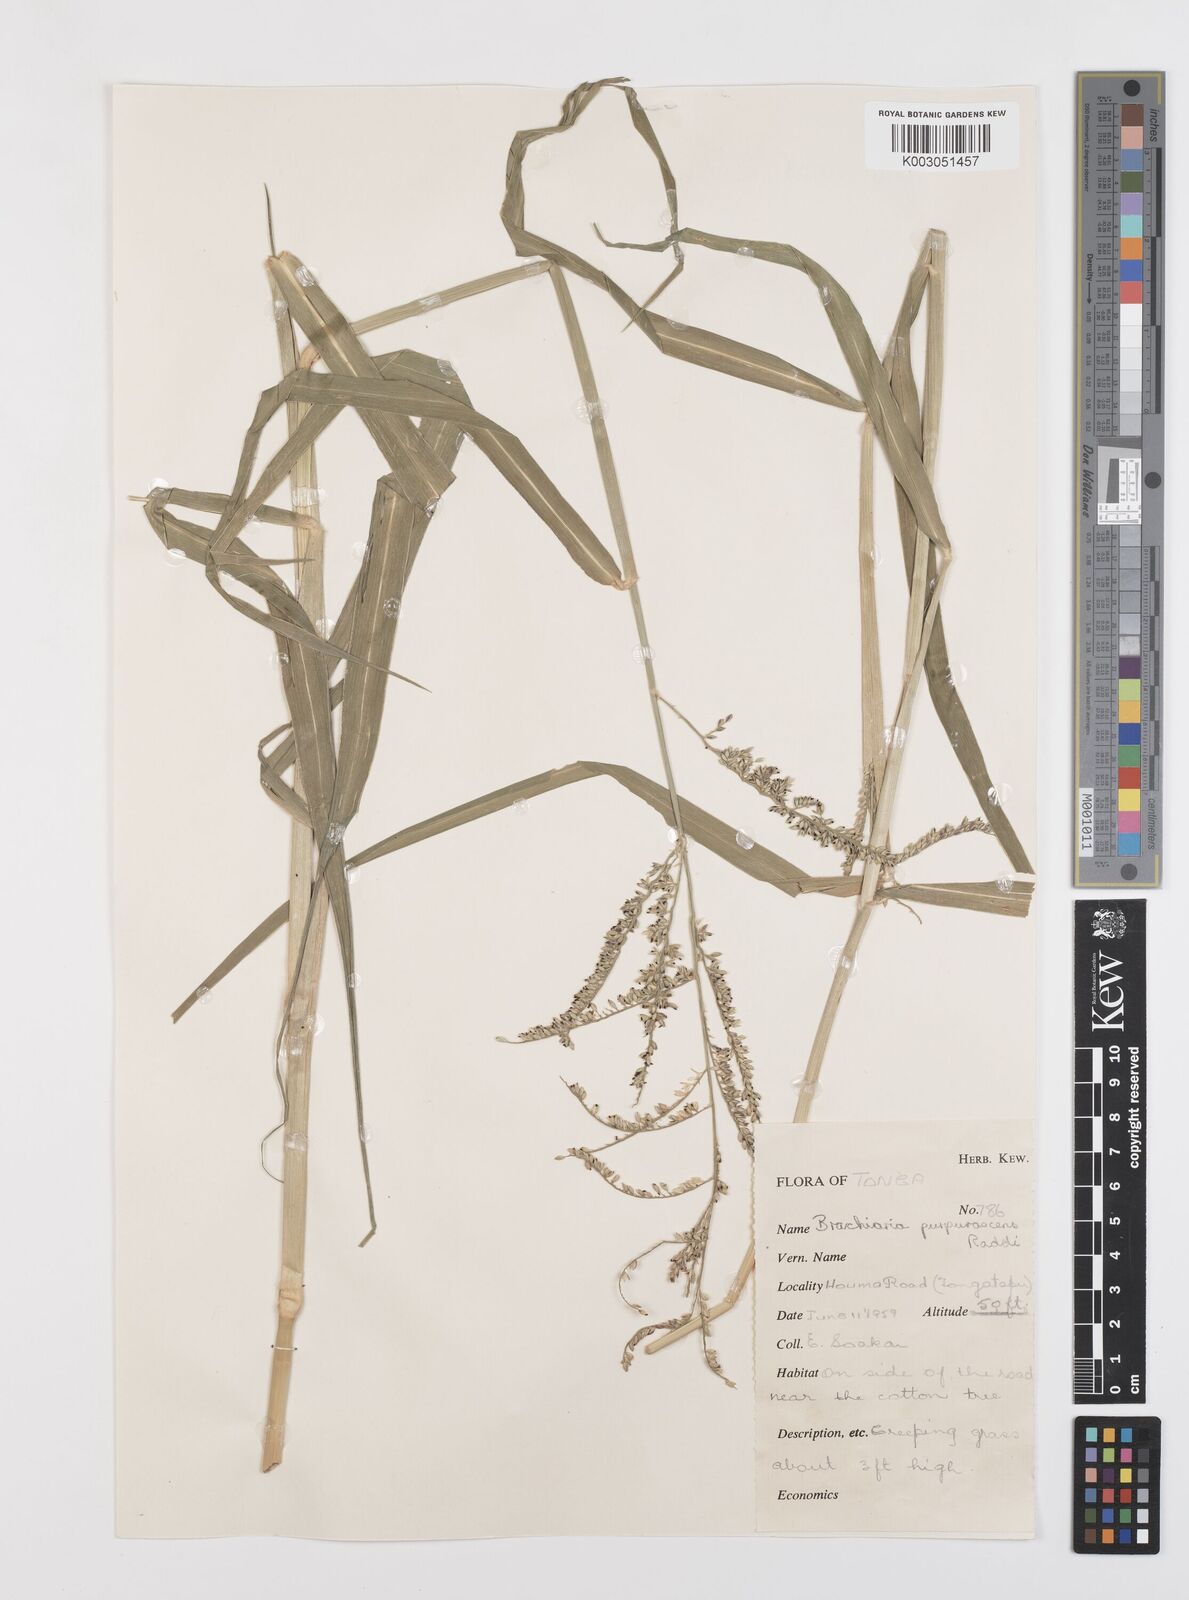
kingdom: Plantae
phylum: Tracheophyta
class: Liliopsida
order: Poales
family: Poaceae
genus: Urochloa
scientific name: Urochloa mutica
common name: Para grass
